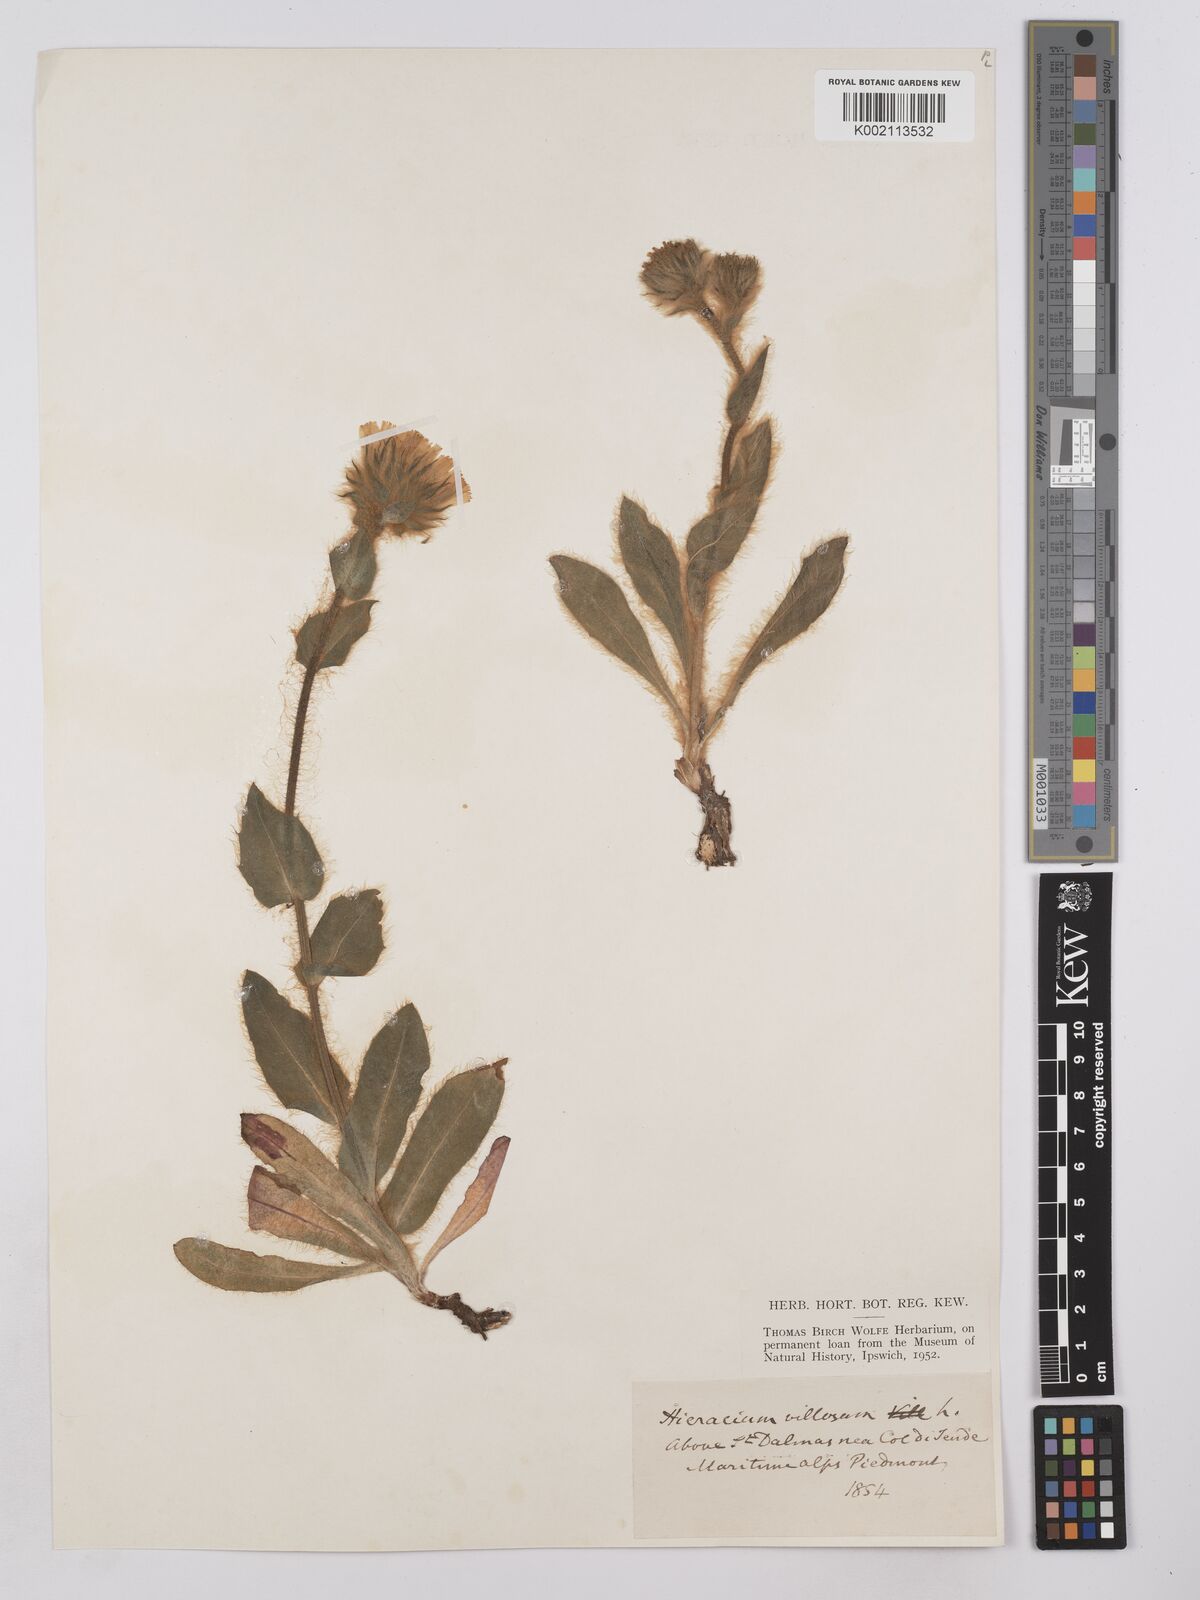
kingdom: Plantae
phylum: Tracheophyta
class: Magnoliopsida
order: Asterales
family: Asteraceae
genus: Hieracium
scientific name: Hieracium
